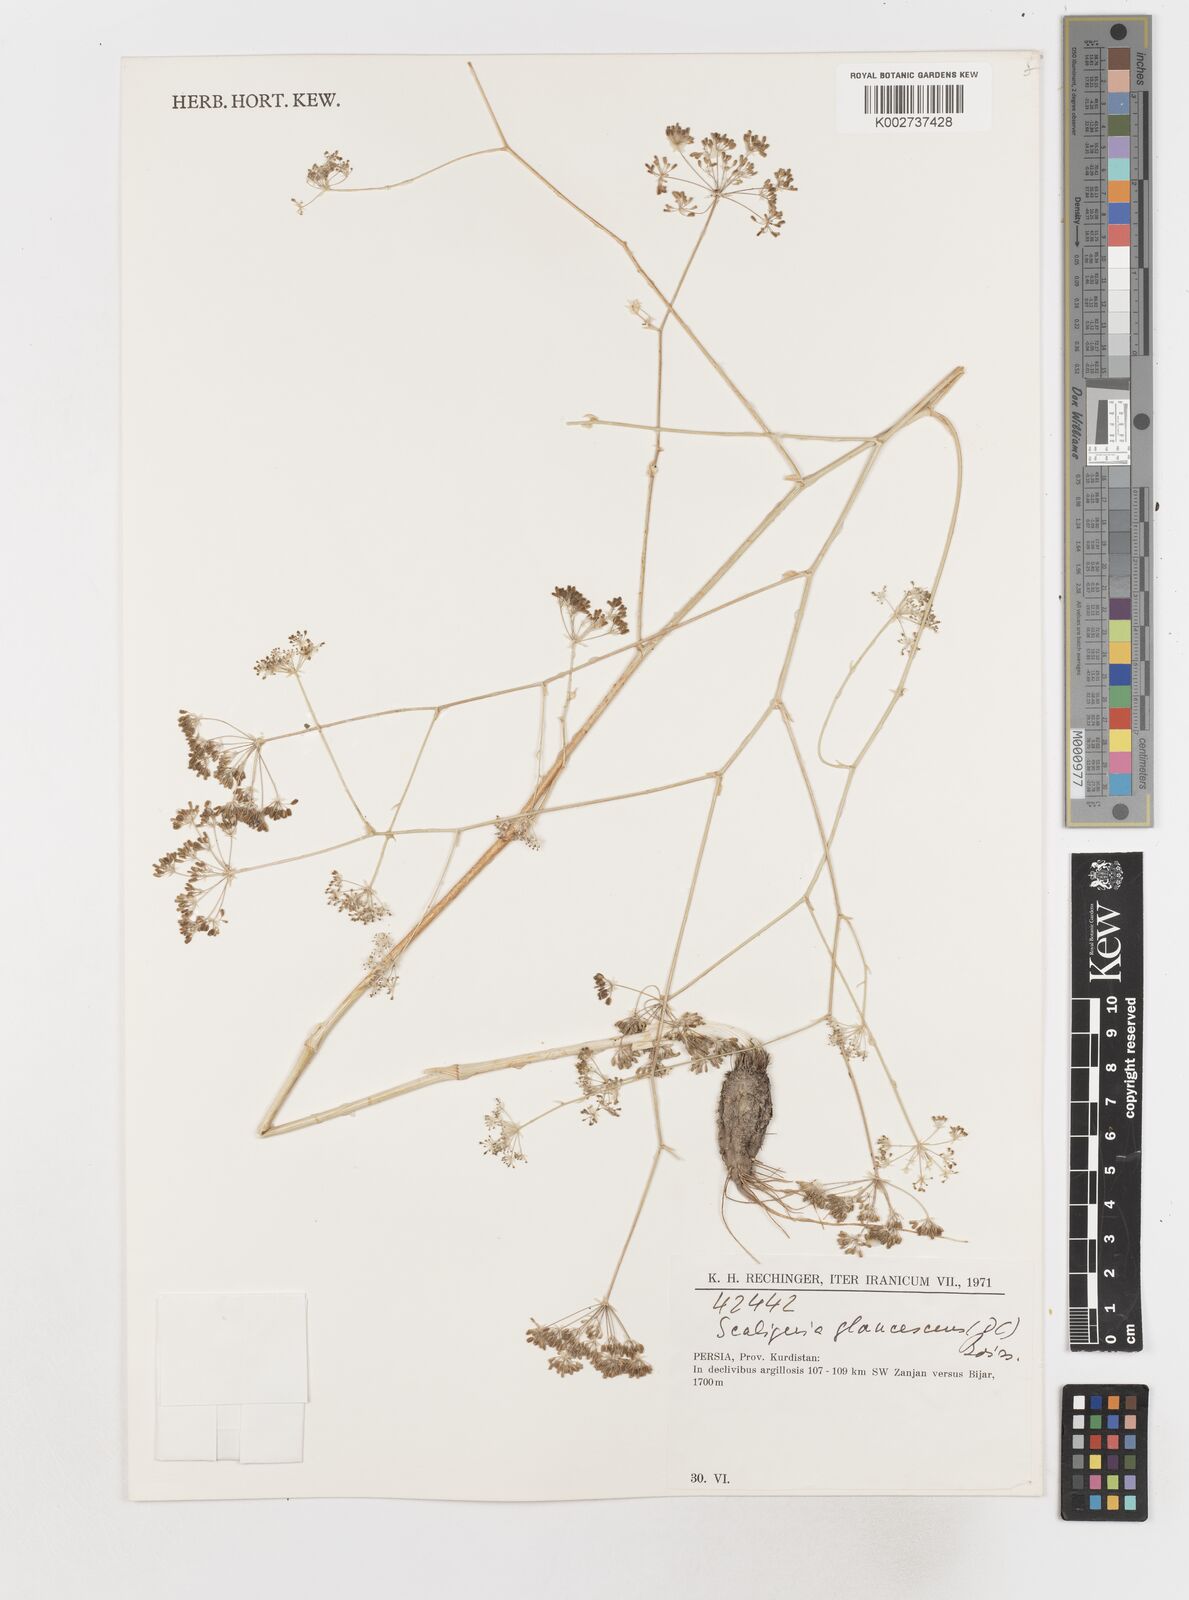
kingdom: Plantae
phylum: Tracheophyta
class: Magnoliopsida
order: Apiales
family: Apiaceae
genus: Scaligeria
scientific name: Scaligeria glaucescens
